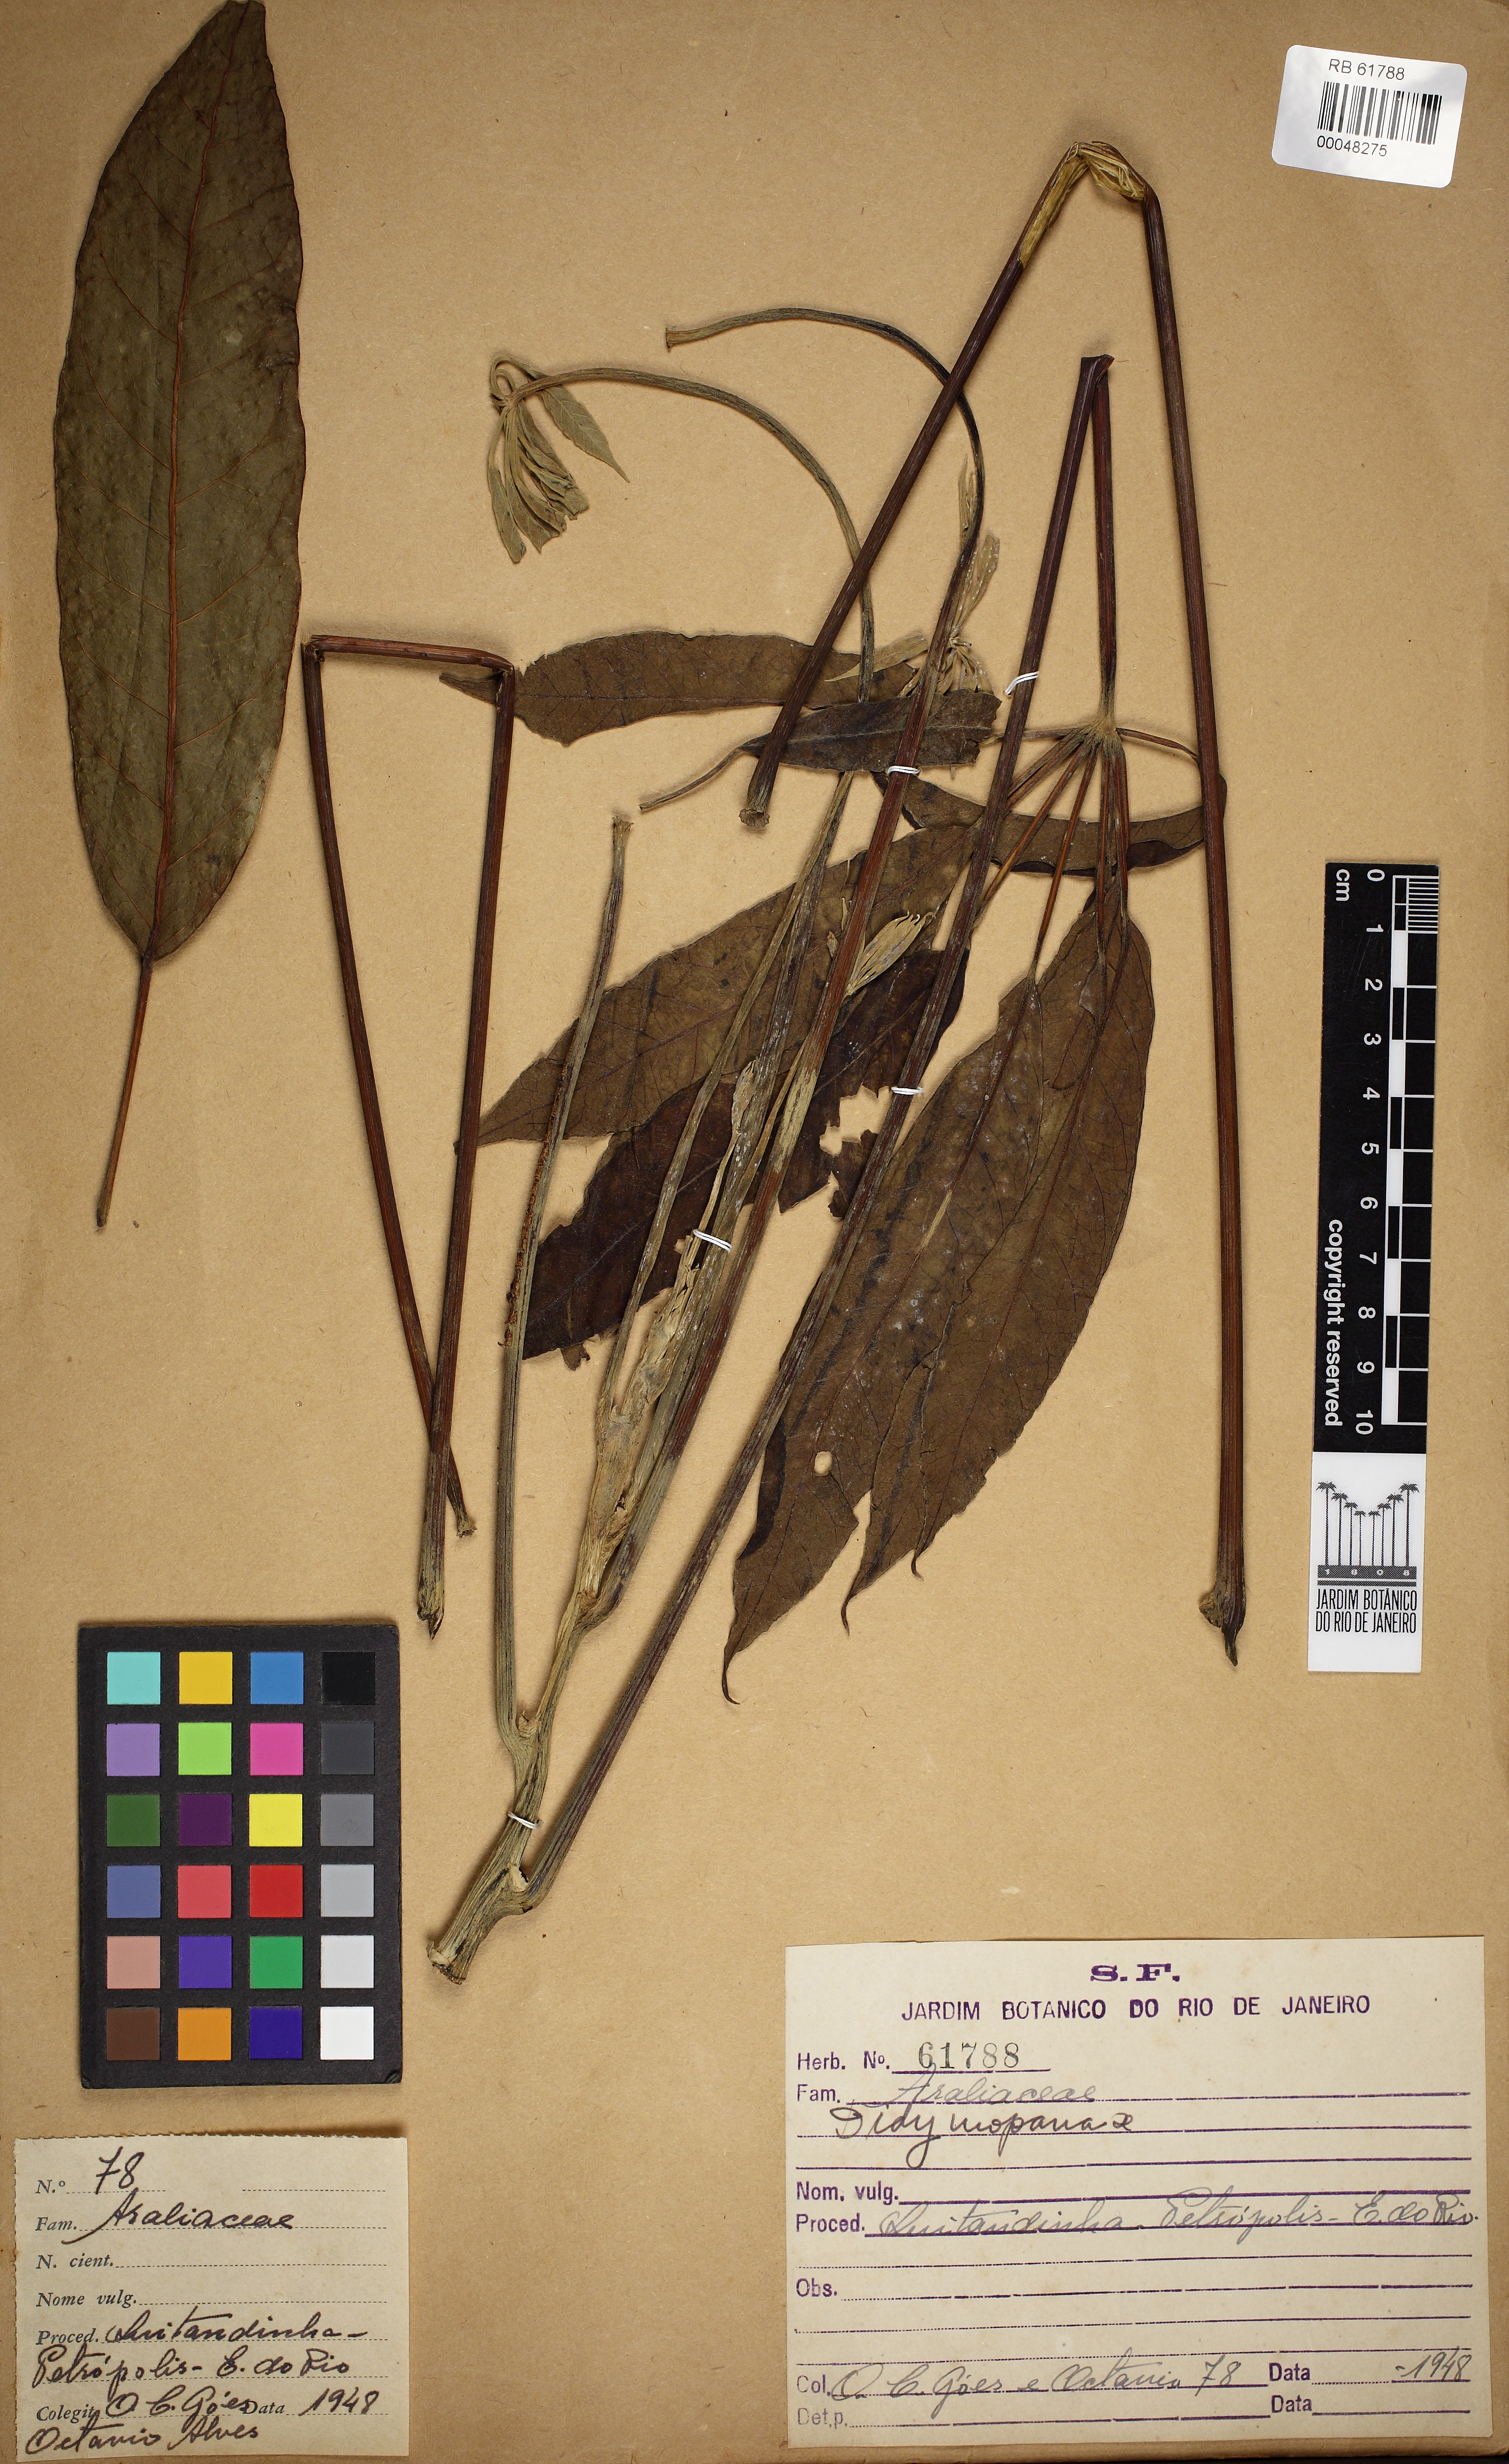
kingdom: Plantae
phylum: Tracheophyta
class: Magnoliopsida
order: Apiales
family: Araliaceae
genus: Didymopanax
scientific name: Didymopanax calvus
